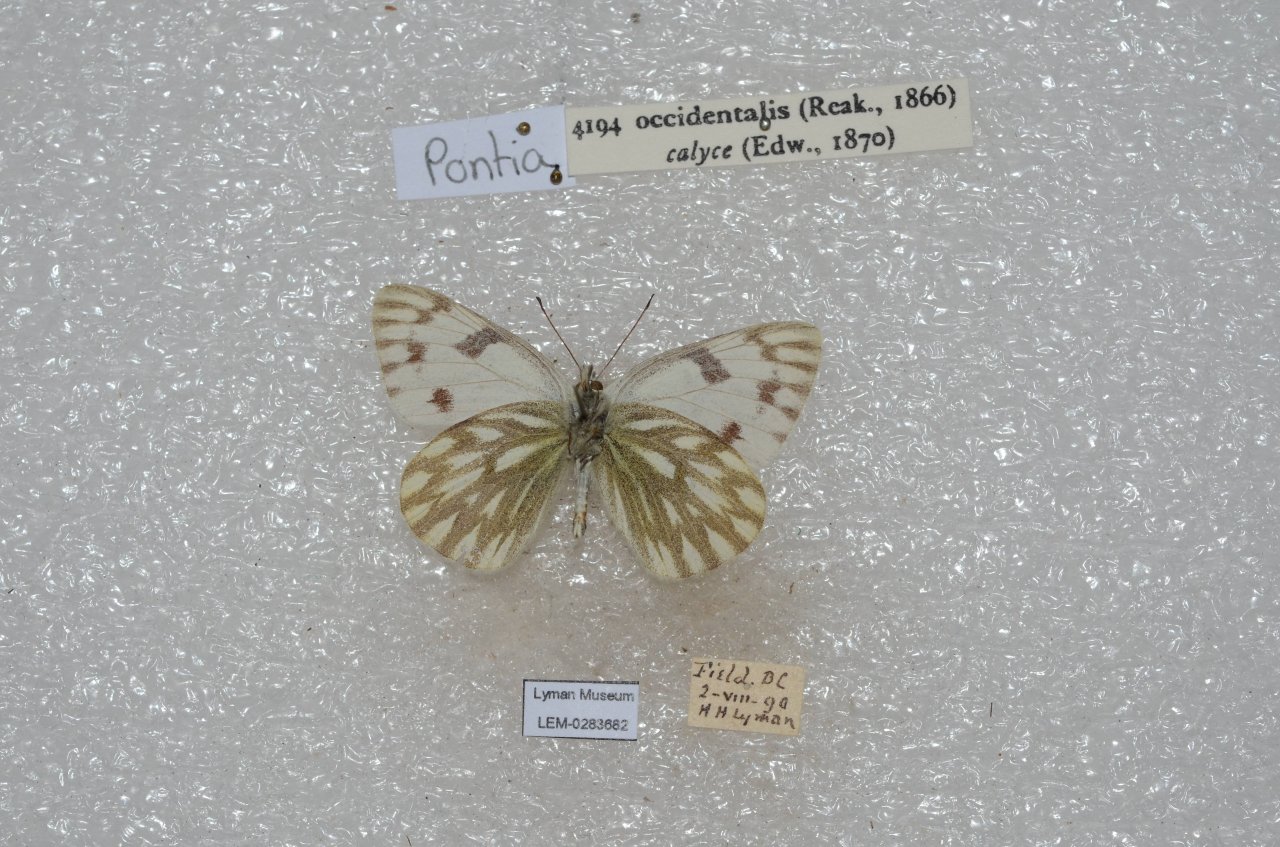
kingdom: Animalia
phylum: Arthropoda
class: Insecta
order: Lepidoptera
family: Pieridae
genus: Pontia
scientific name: Pontia occidentalis
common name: Western White
